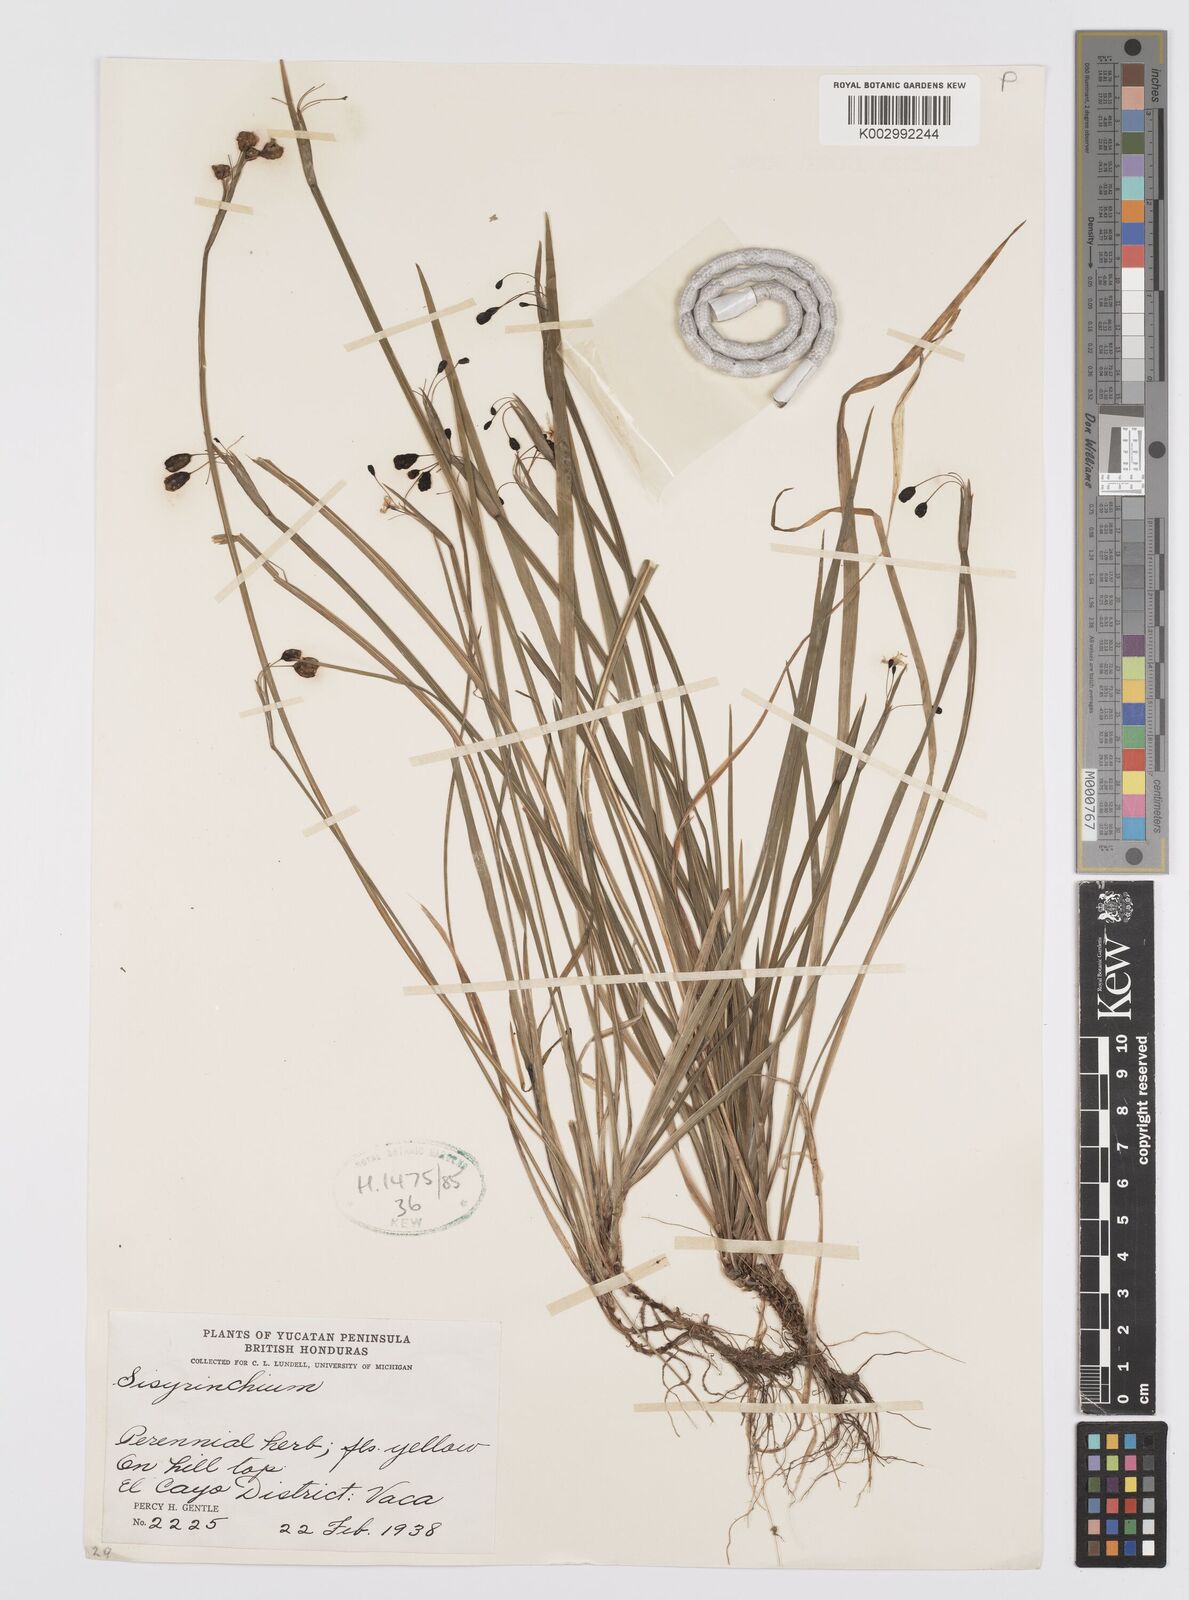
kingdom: Plantae
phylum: Tracheophyta
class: Liliopsida
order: Asparagales
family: Iridaceae
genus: Sisyrinchium
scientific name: Sisyrinchium
